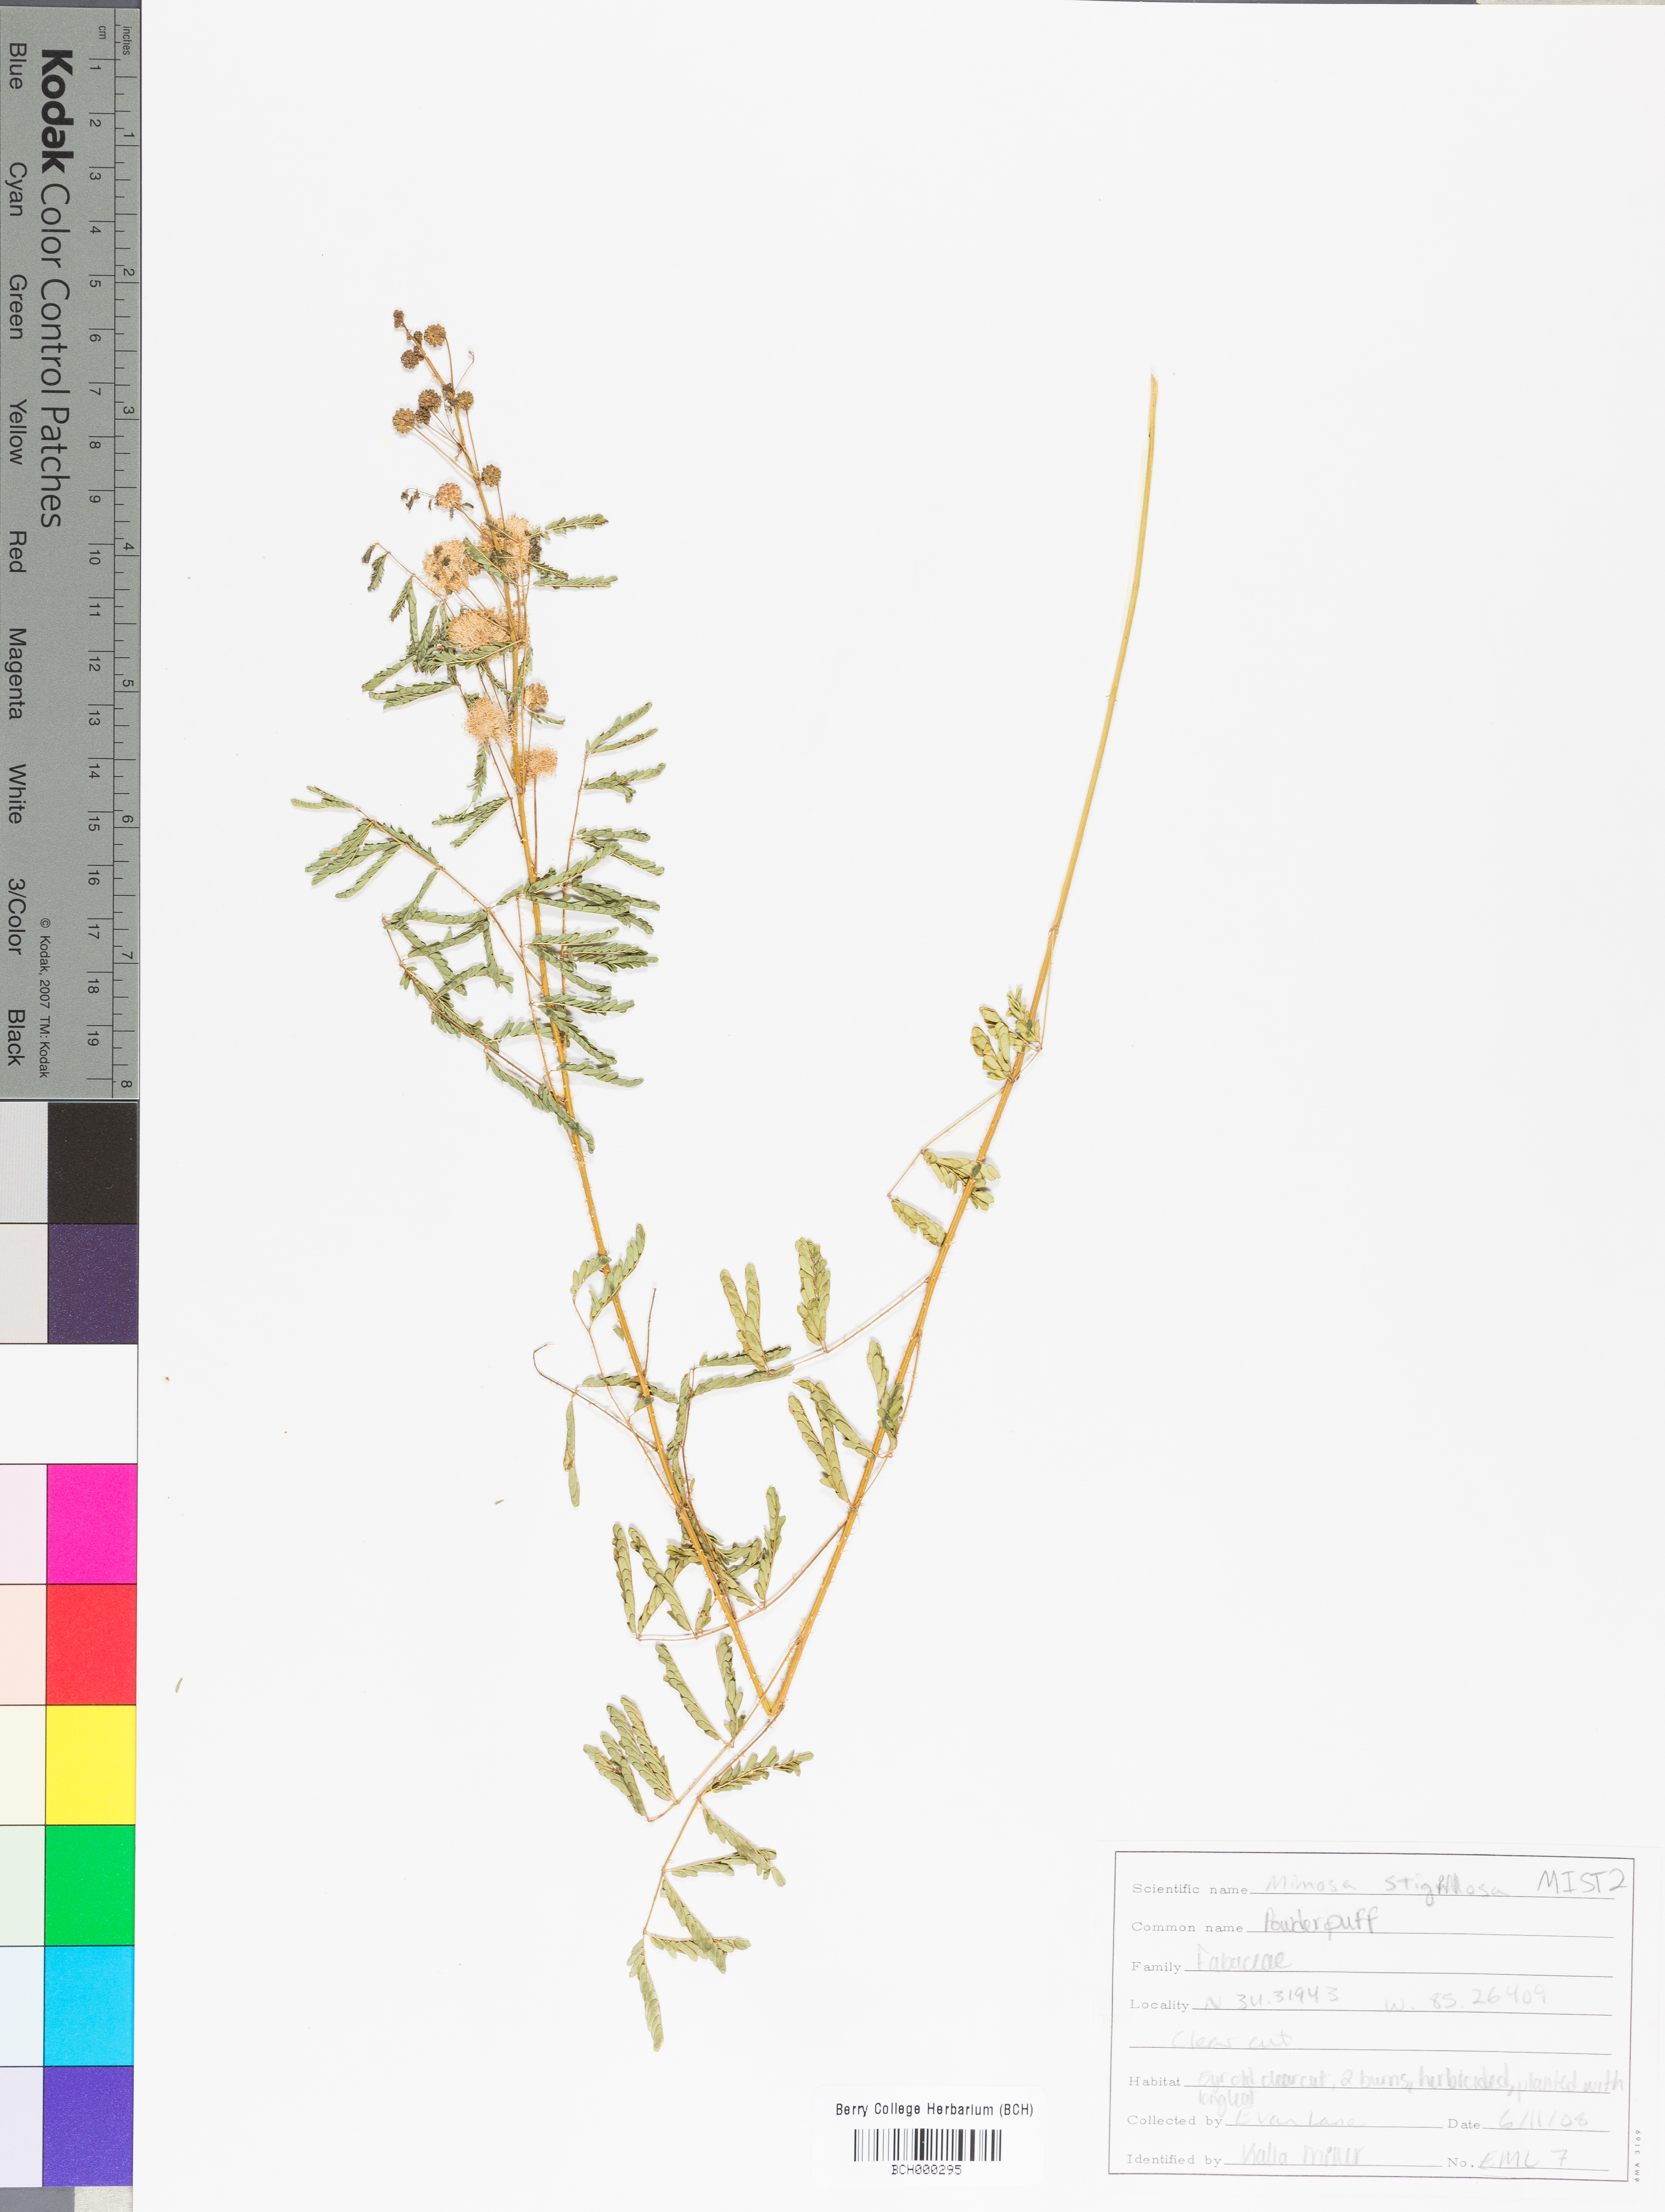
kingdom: Plantae
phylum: Tracheophyta
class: Magnoliopsida
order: Fabales
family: Fabaceae
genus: Mimosa
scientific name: Mimosa strigillosa
